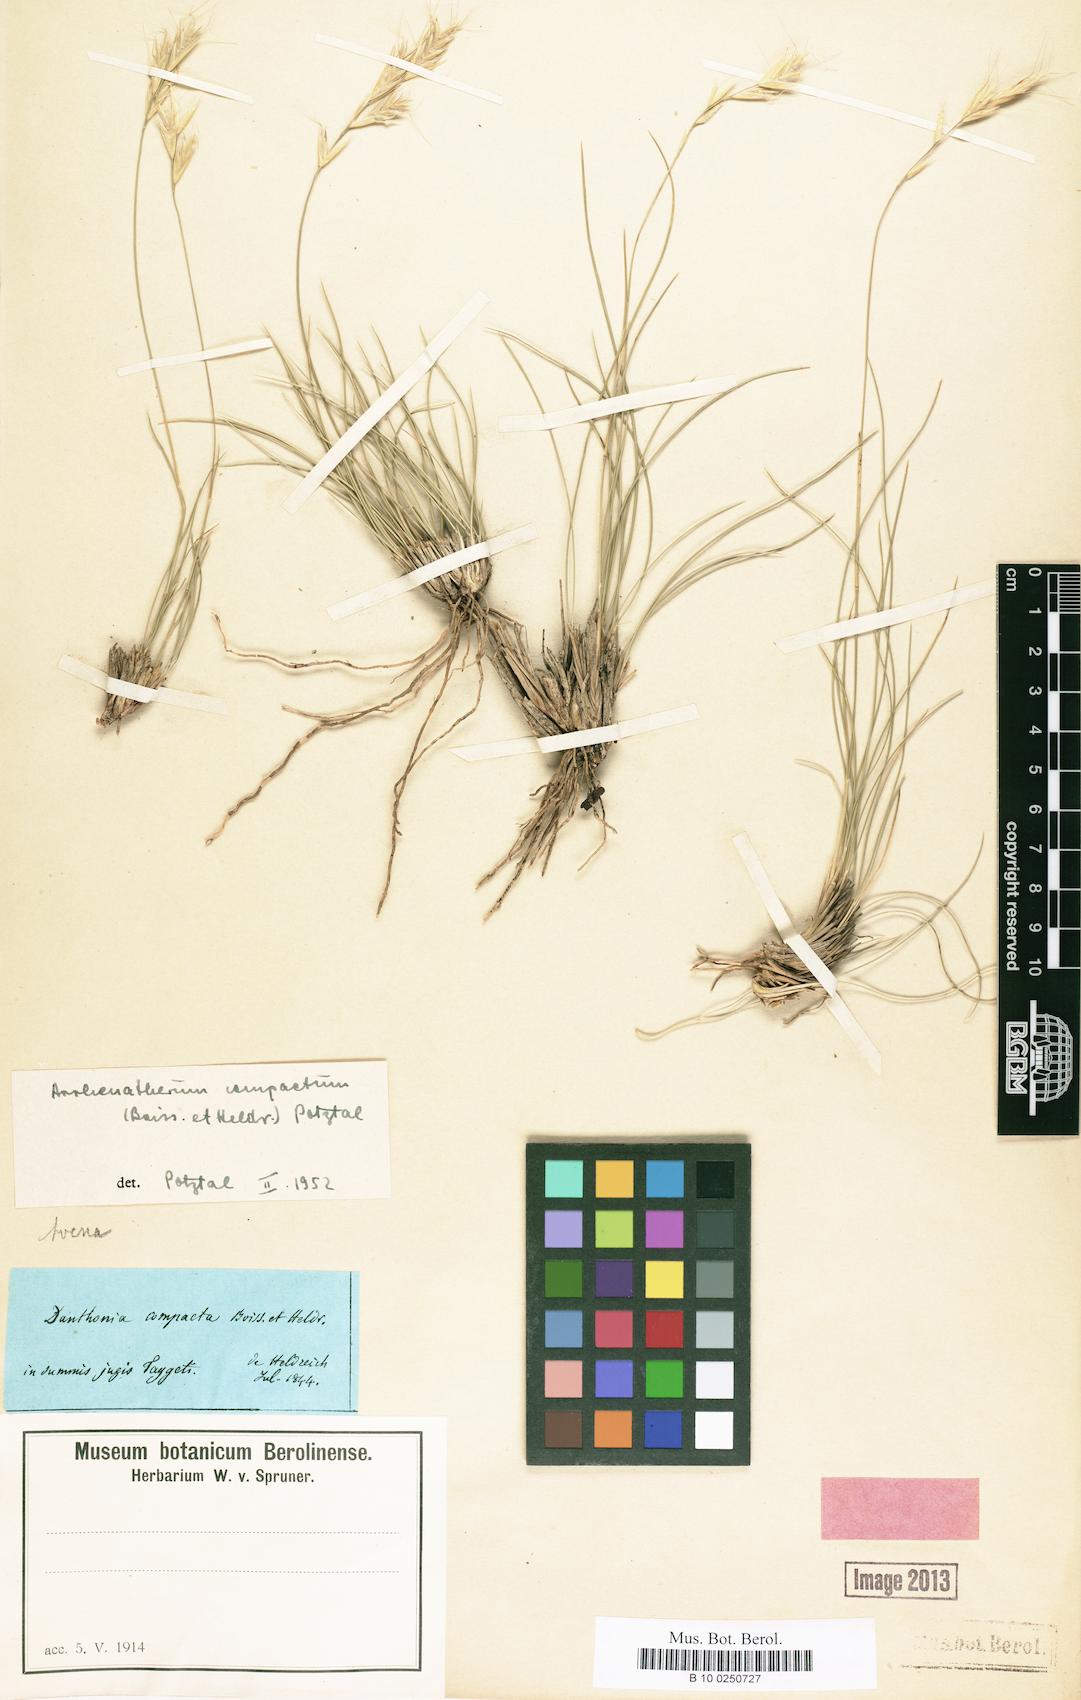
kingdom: Plantae
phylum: Tracheophyta
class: Liliopsida
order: Poales
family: Poaceae
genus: Danthoniastrum
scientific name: Danthoniastrum compactum
